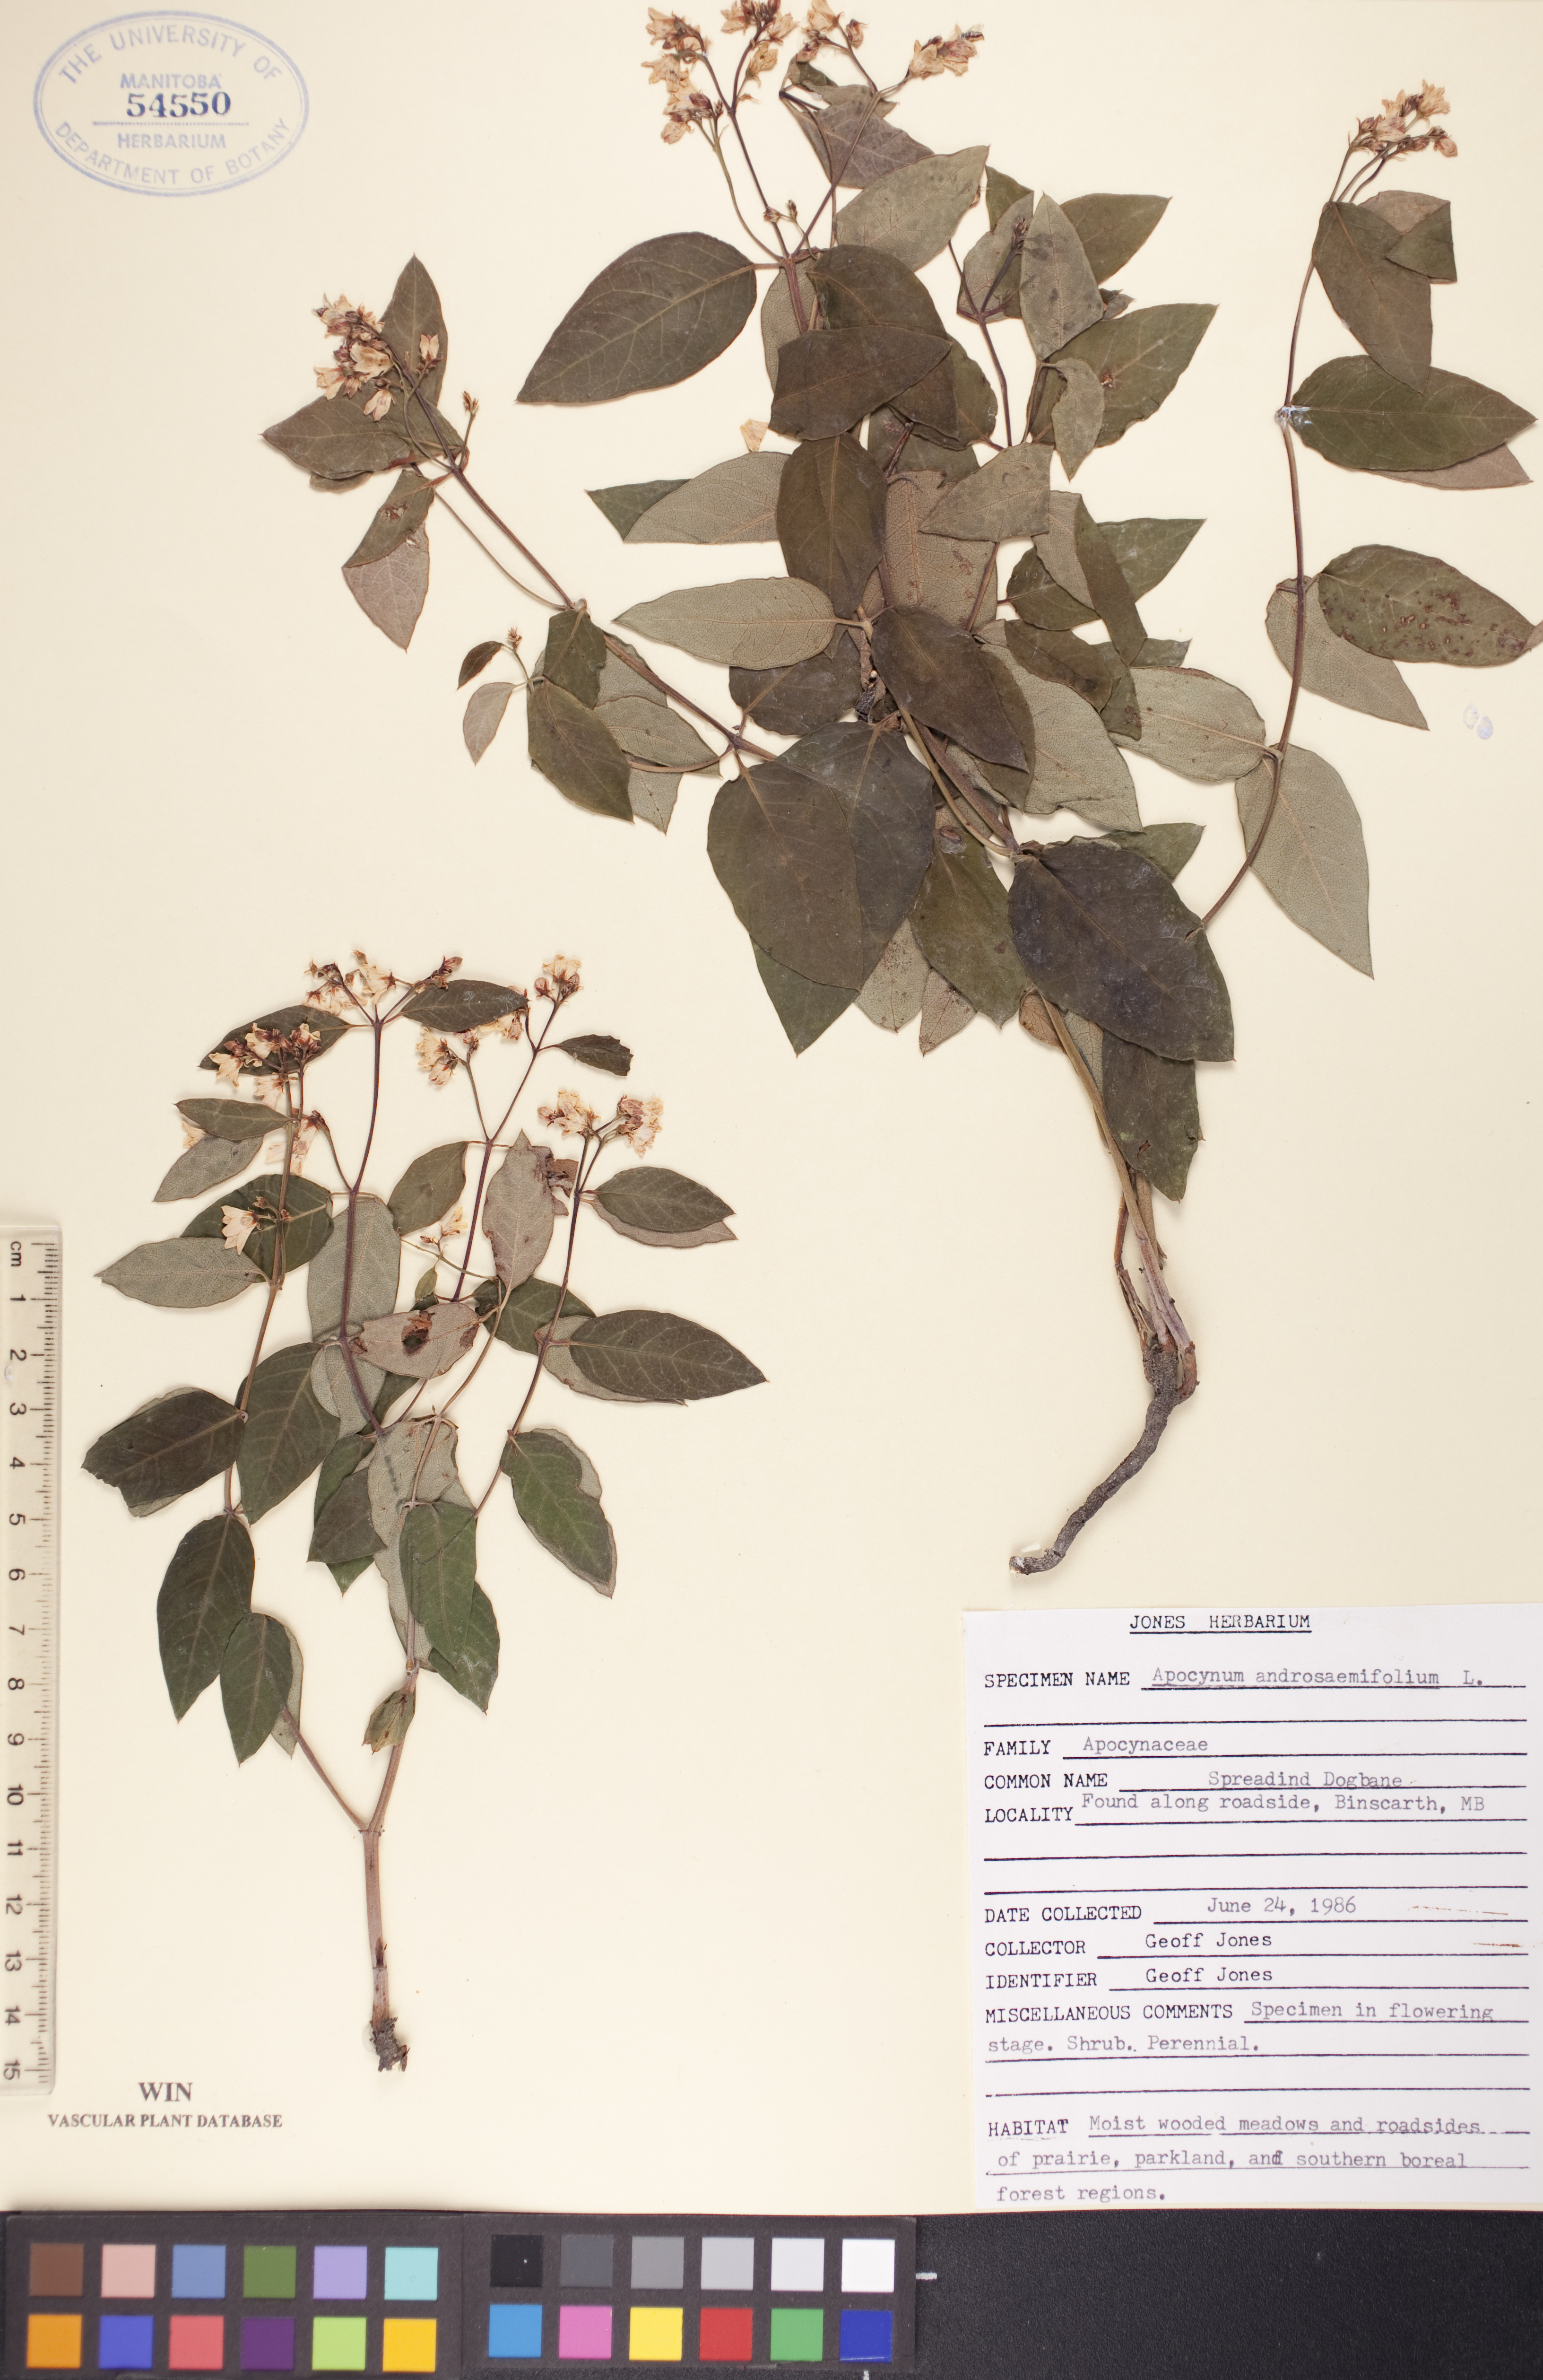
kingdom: Plantae
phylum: Tracheophyta
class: Magnoliopsida
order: Gentianales
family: Apocynaceae
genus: Apocynum
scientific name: Apocynum androsaemifolium
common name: Spreading dogbane
